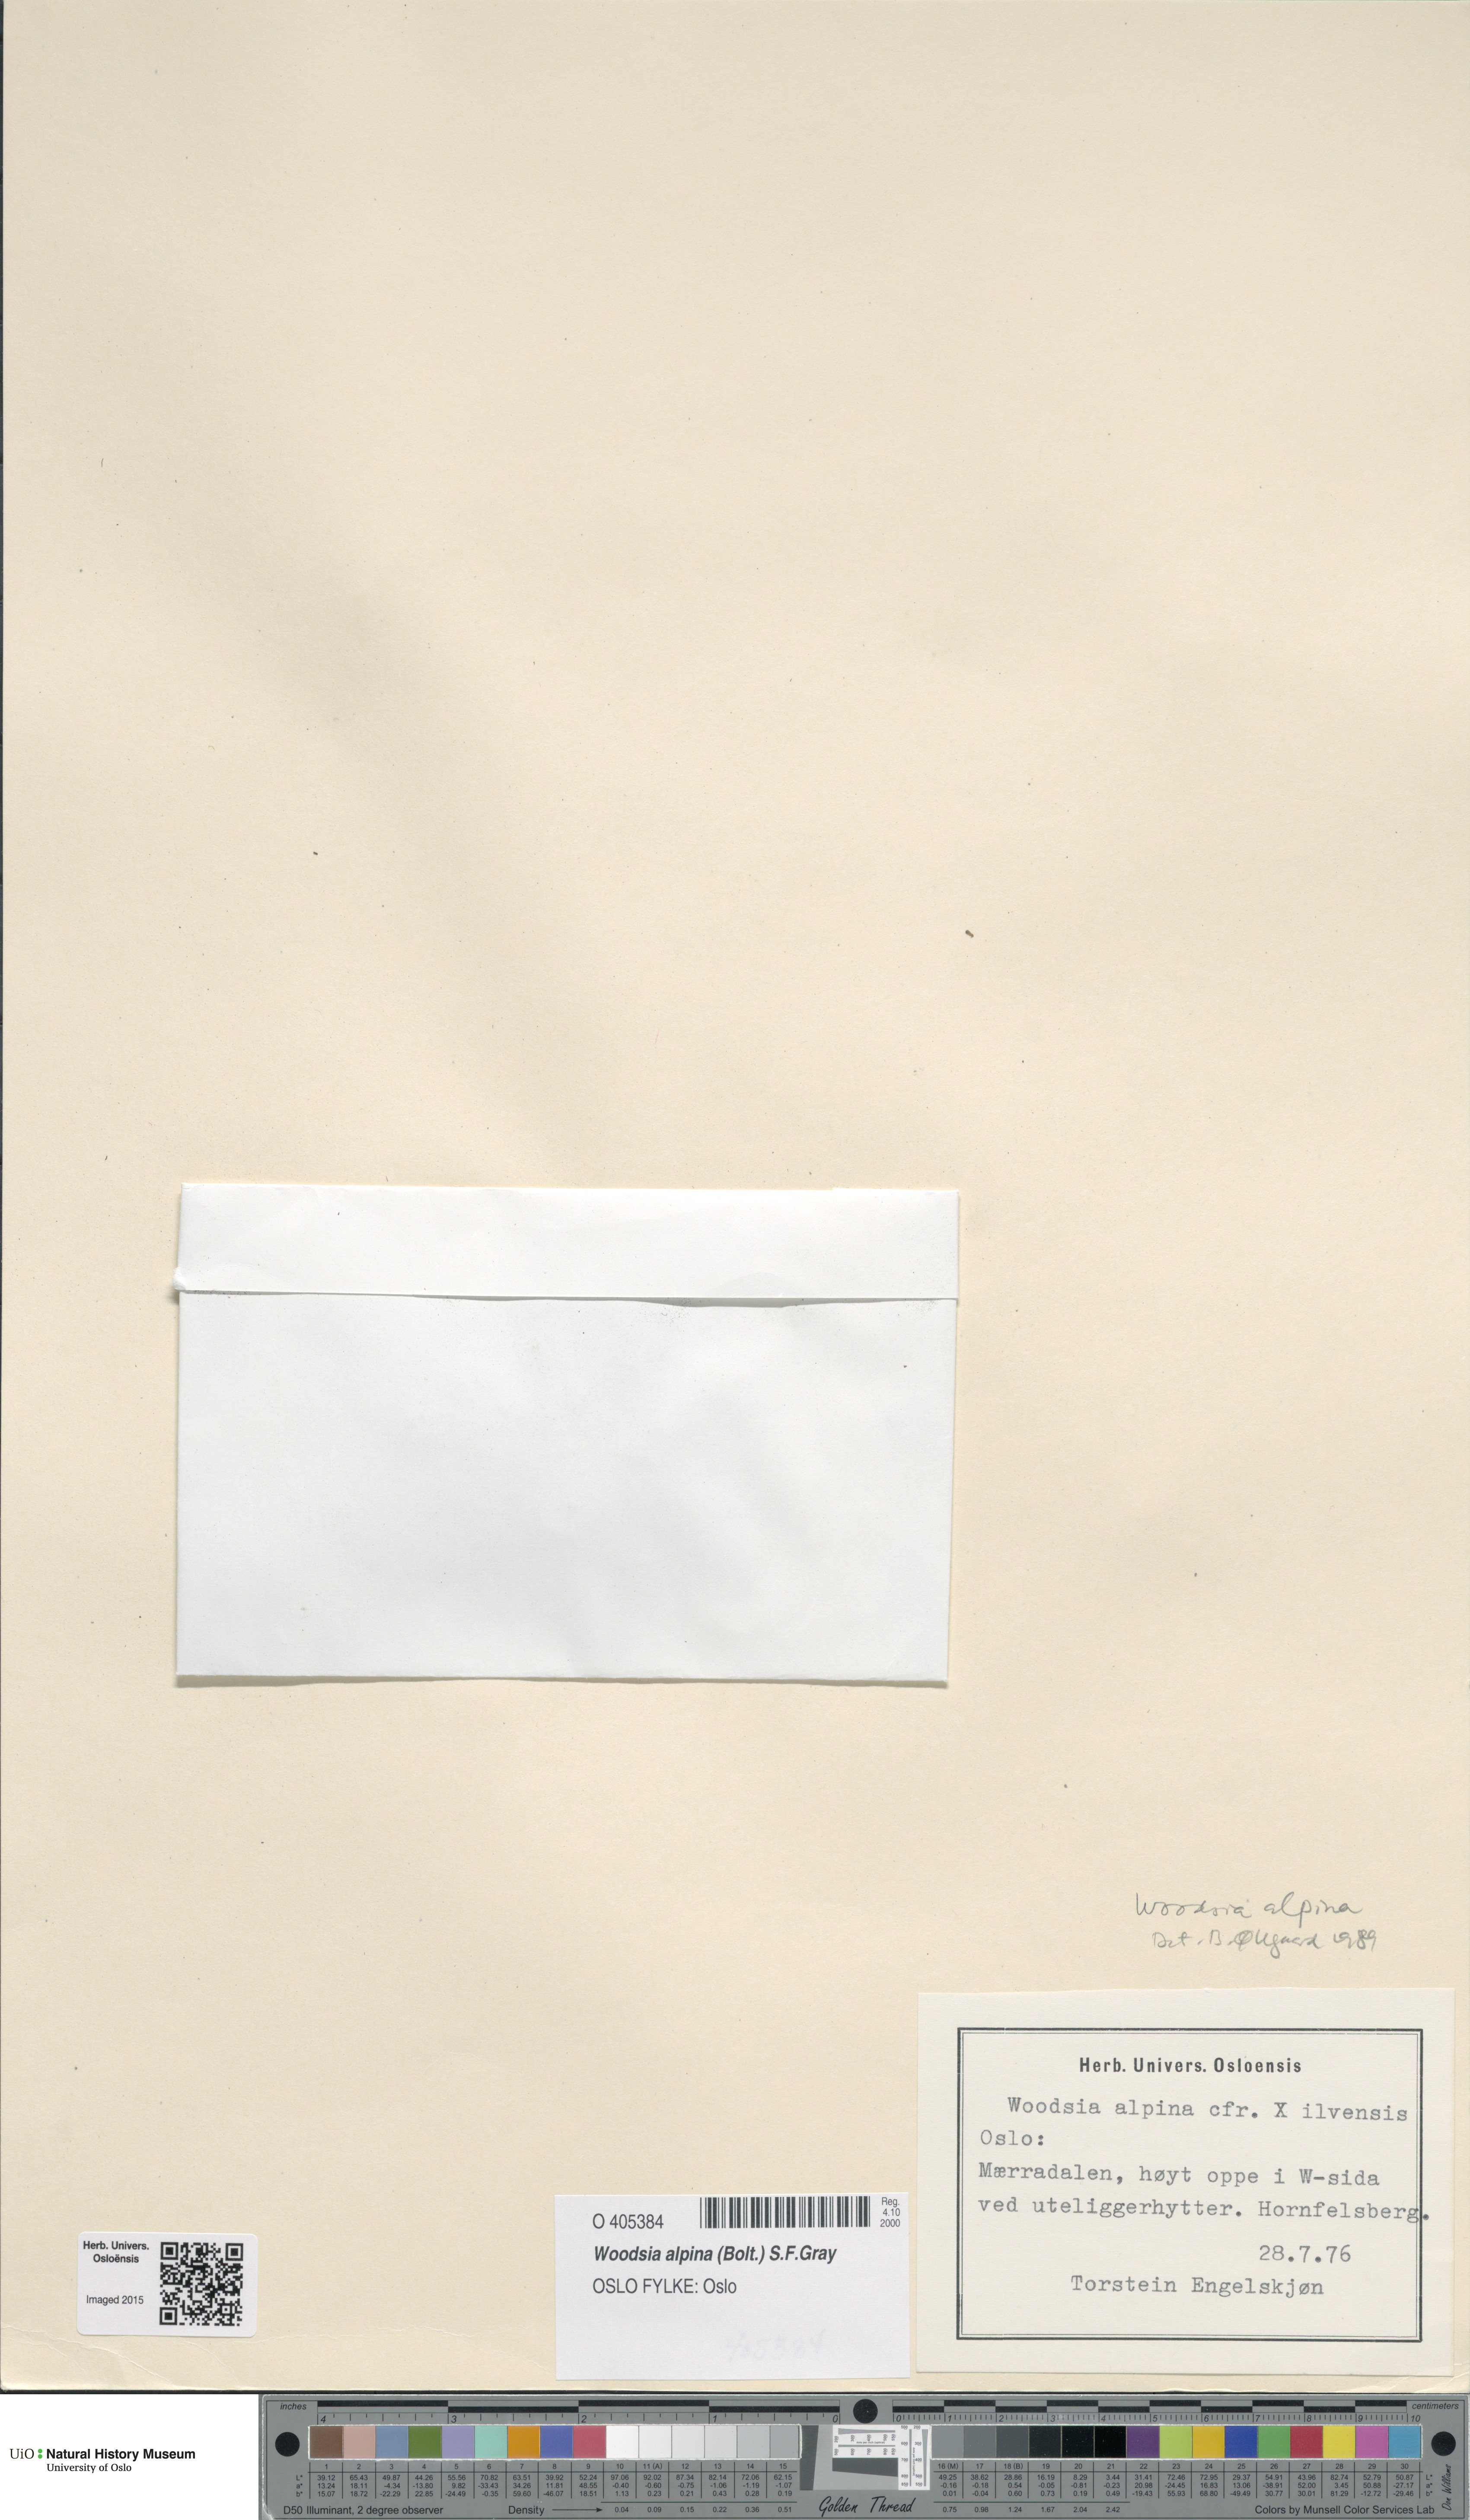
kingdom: Plantae
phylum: Tracheophyta
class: Polypodiopsida
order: Polypodiales
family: Woodsiaceae
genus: Woodsia
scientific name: Woodsia alpina
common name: Alpine woodsia
